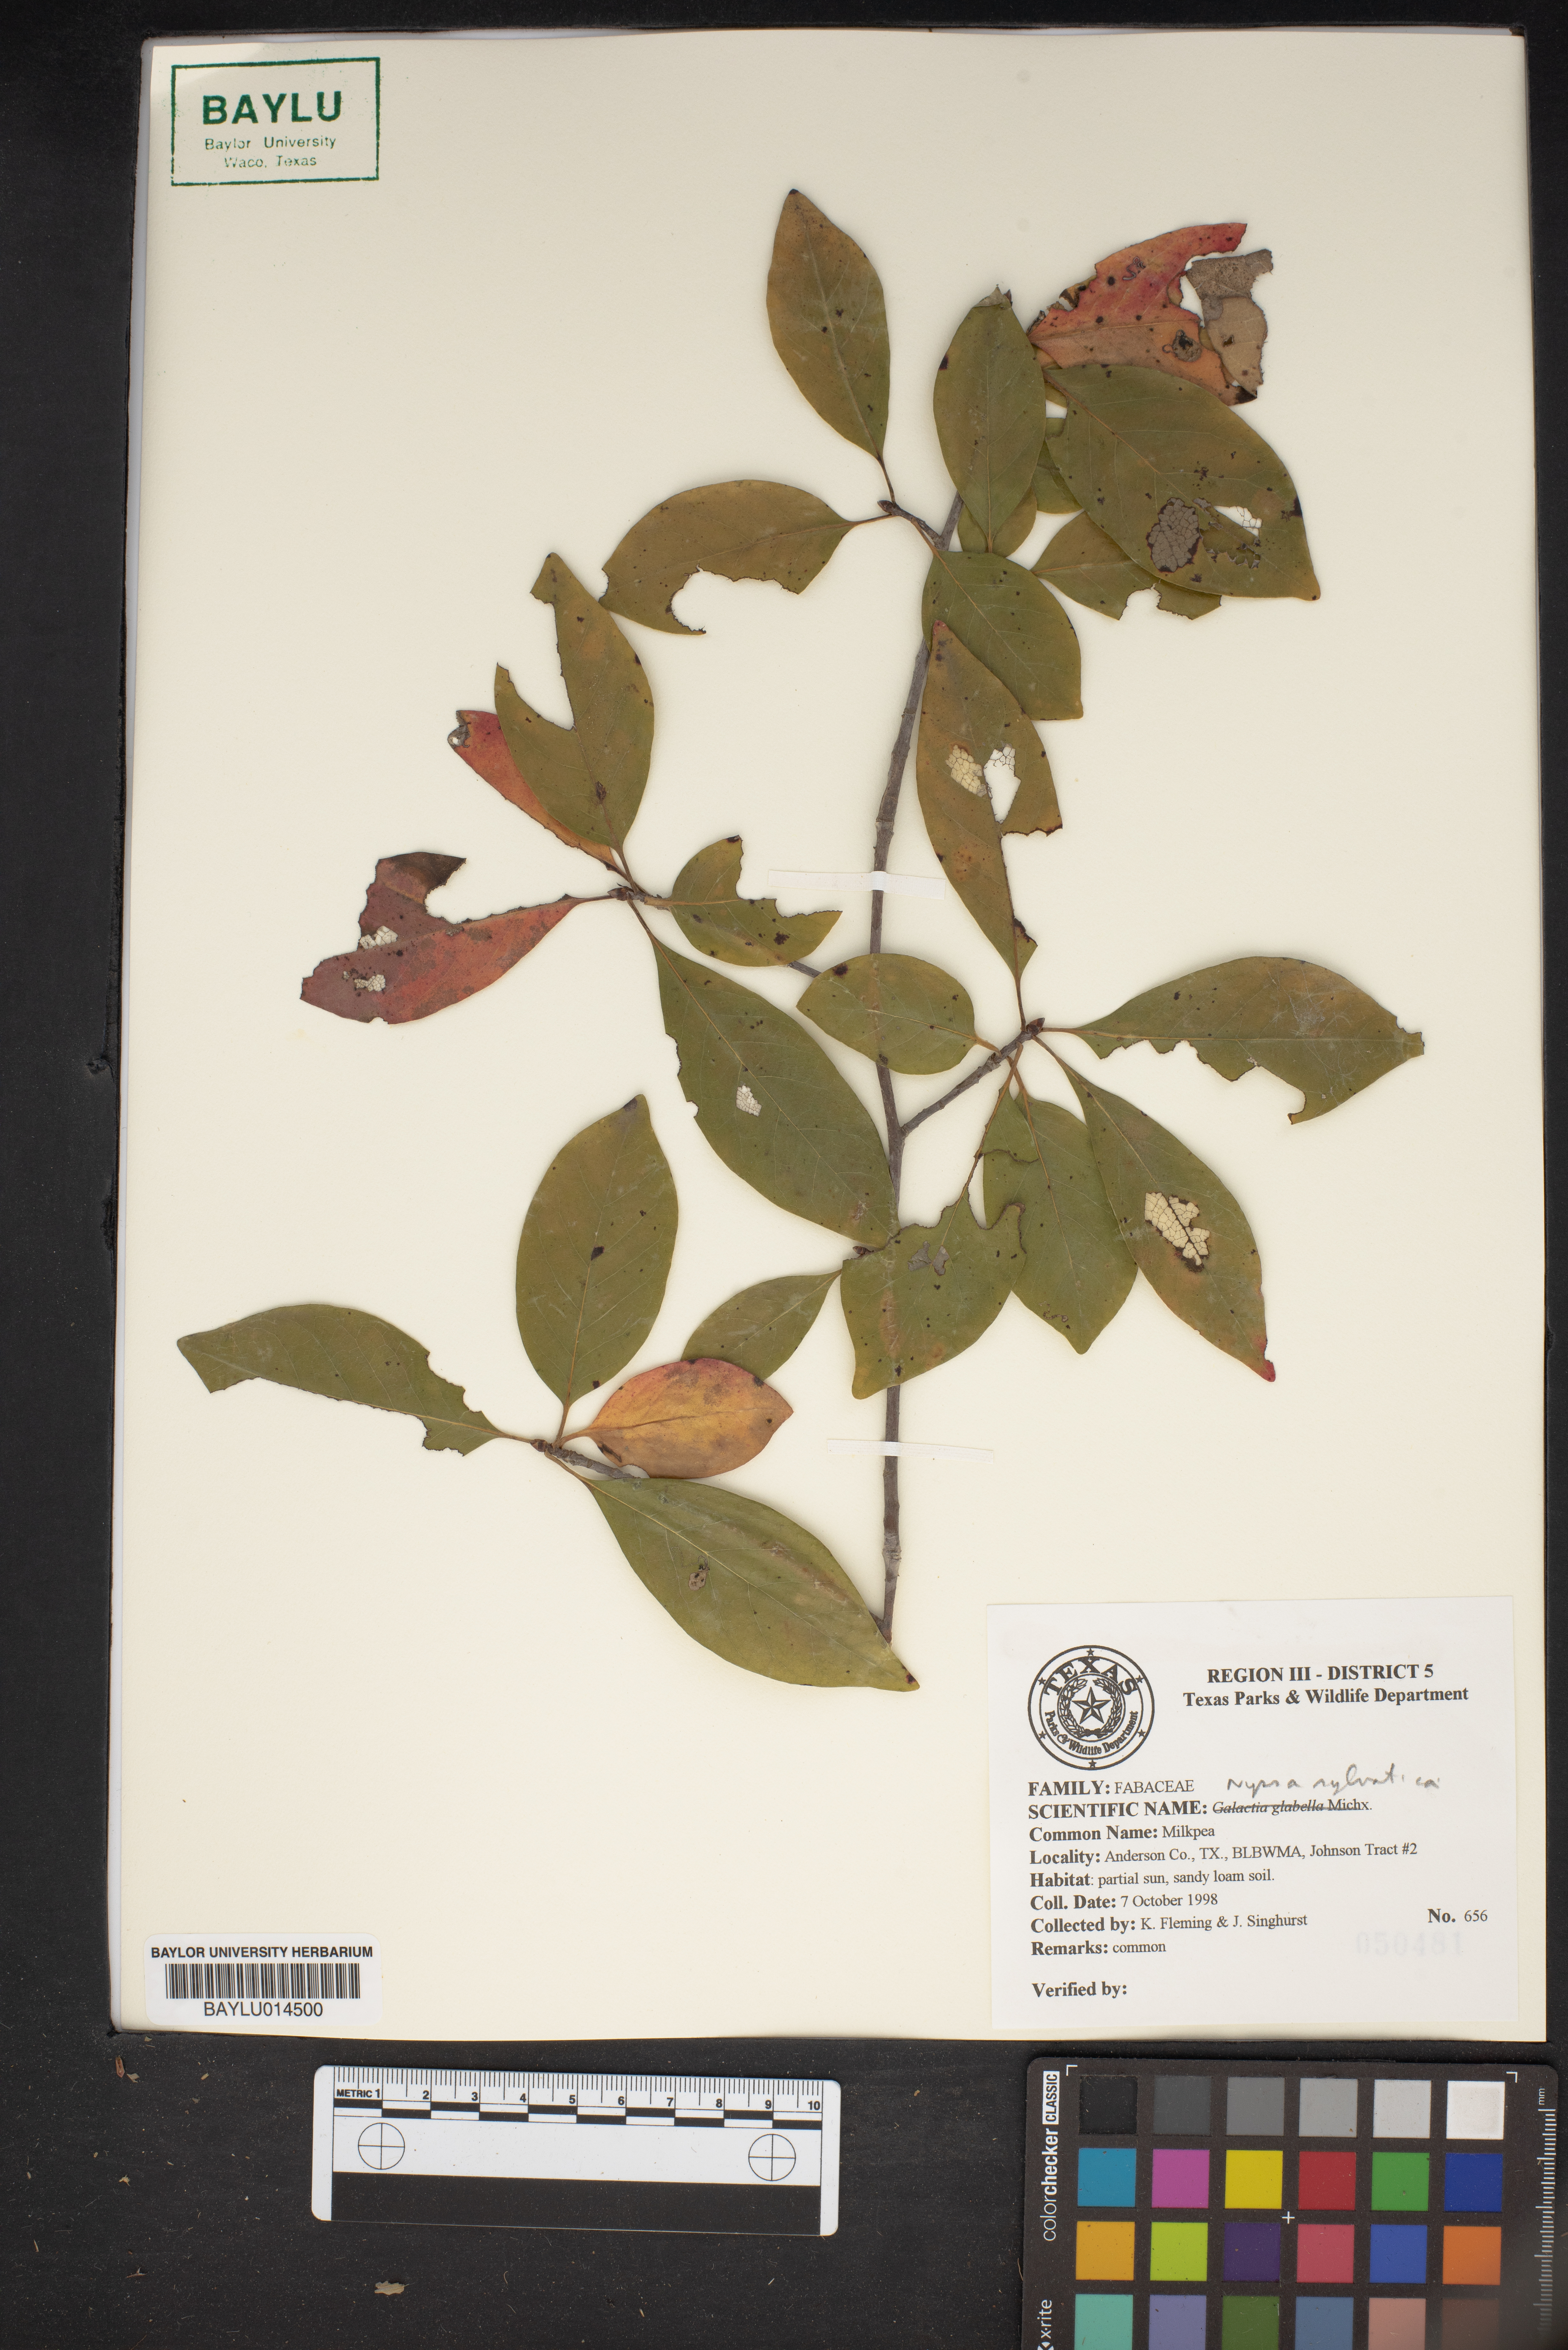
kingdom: Plantae
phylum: Tracheophyta
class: Magnoliopsida
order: Cornales
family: Nyssaceae
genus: Nyssa
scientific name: Nyssa sylvatica
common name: Black tupelo
